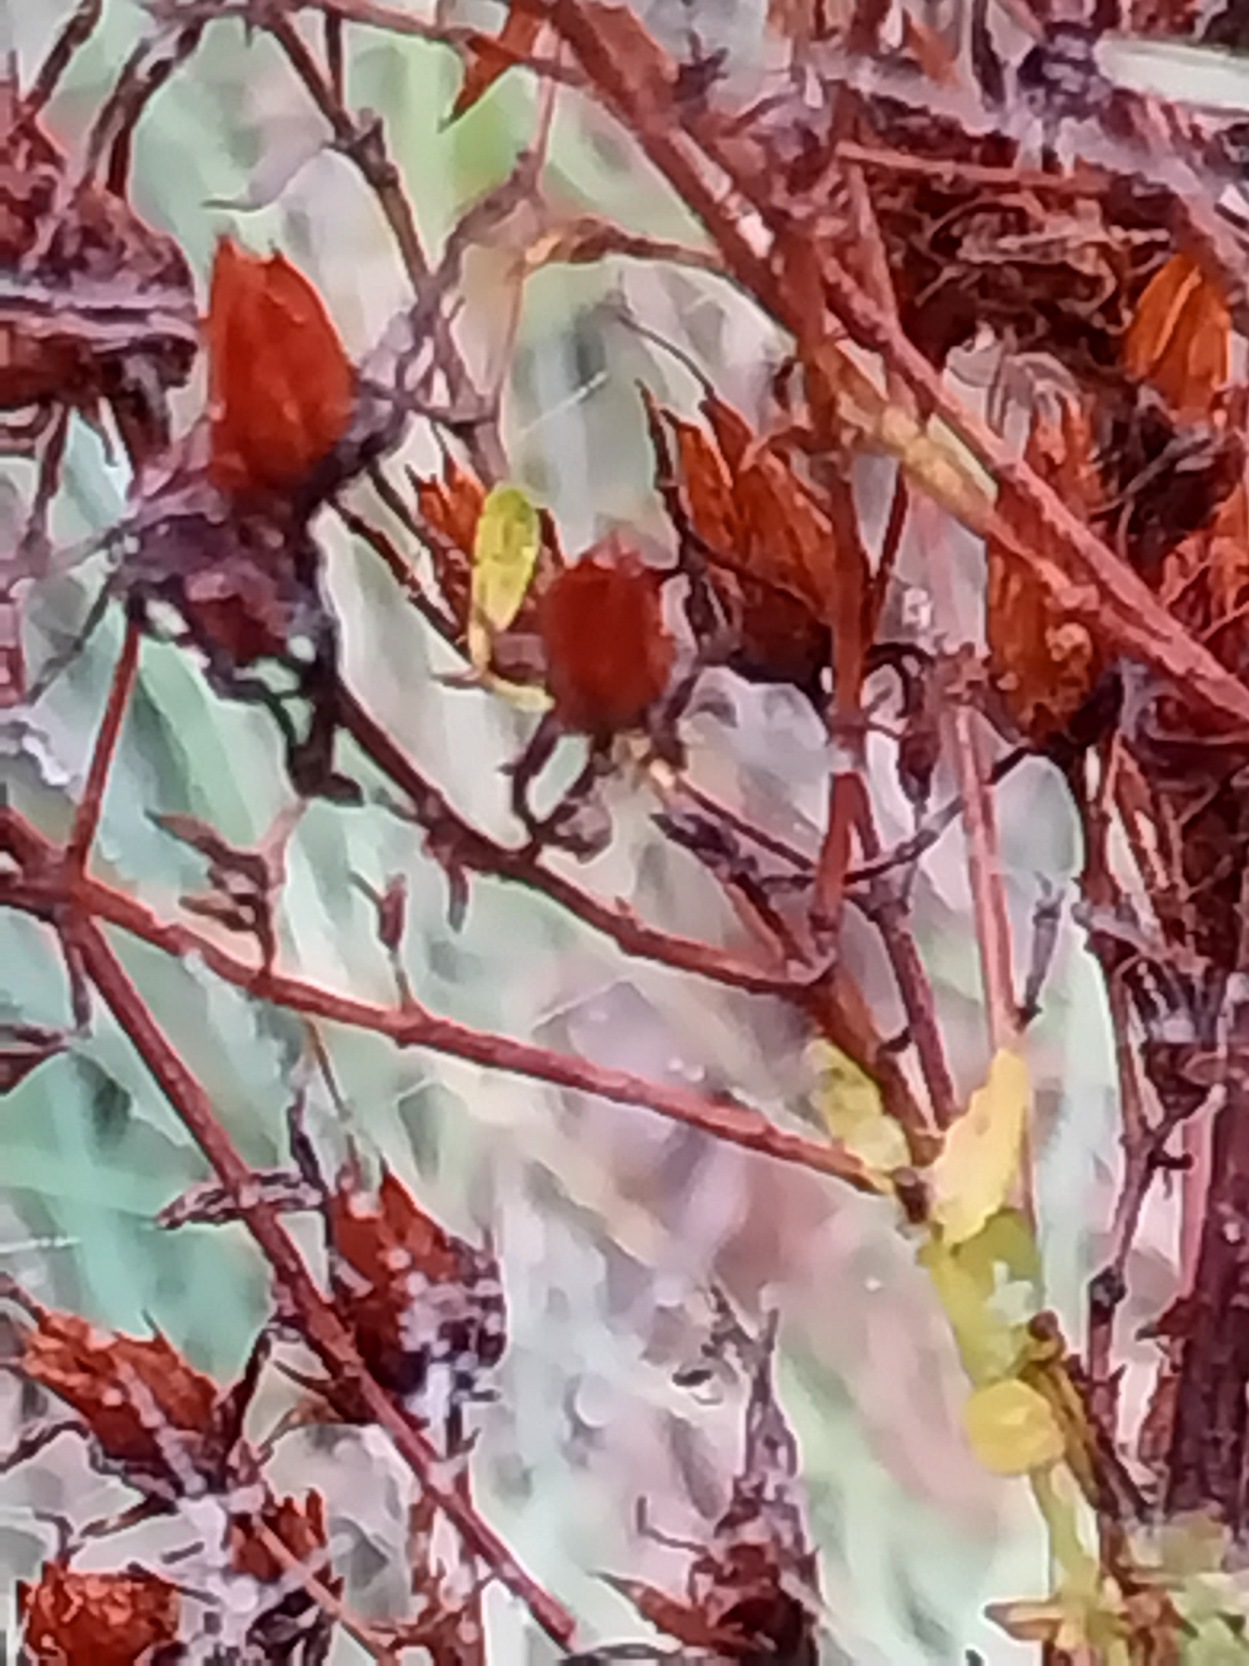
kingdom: Plantae
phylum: Tracheophyta
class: Magnoliopsida
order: Malpighiales
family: Hypericaceae
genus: Hypericum
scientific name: Hypericum perforatum
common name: Prikbladet perikon
